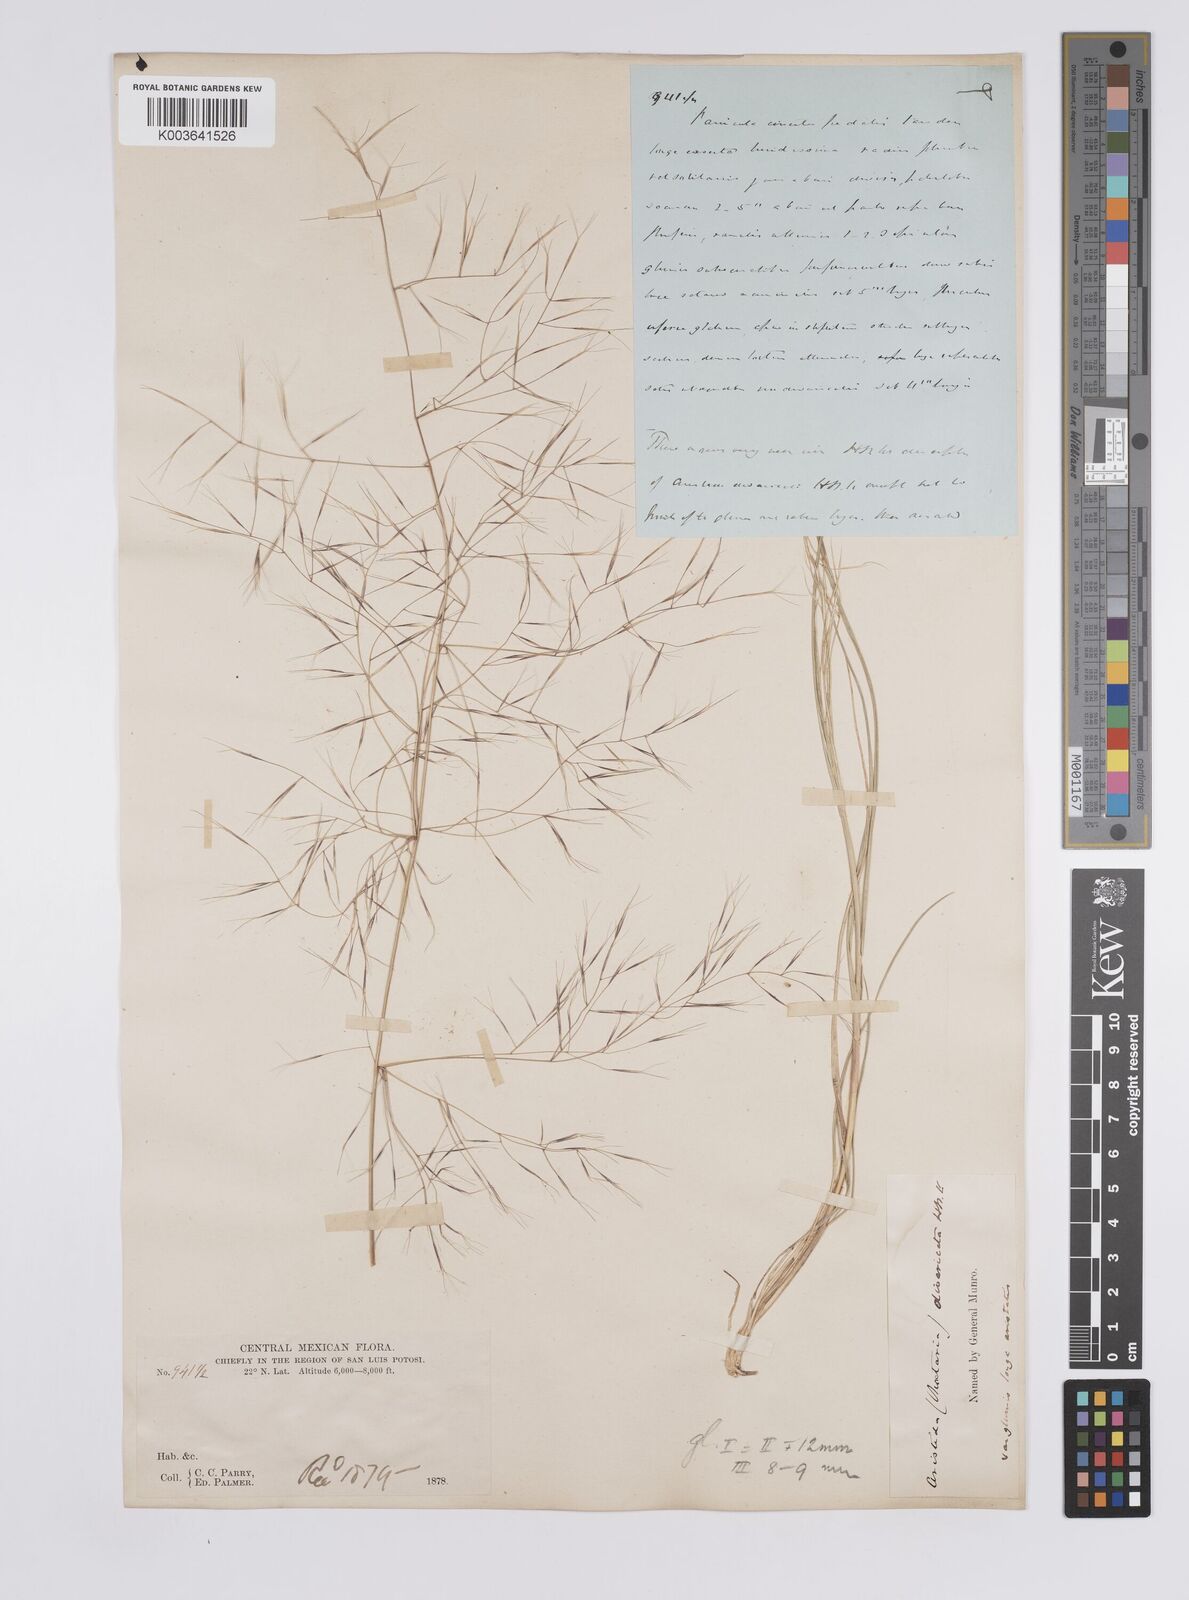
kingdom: Plantae
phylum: Tracheophyta
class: Liliopsida
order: Poales
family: Poaceae
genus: Aristida
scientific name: Aristida
